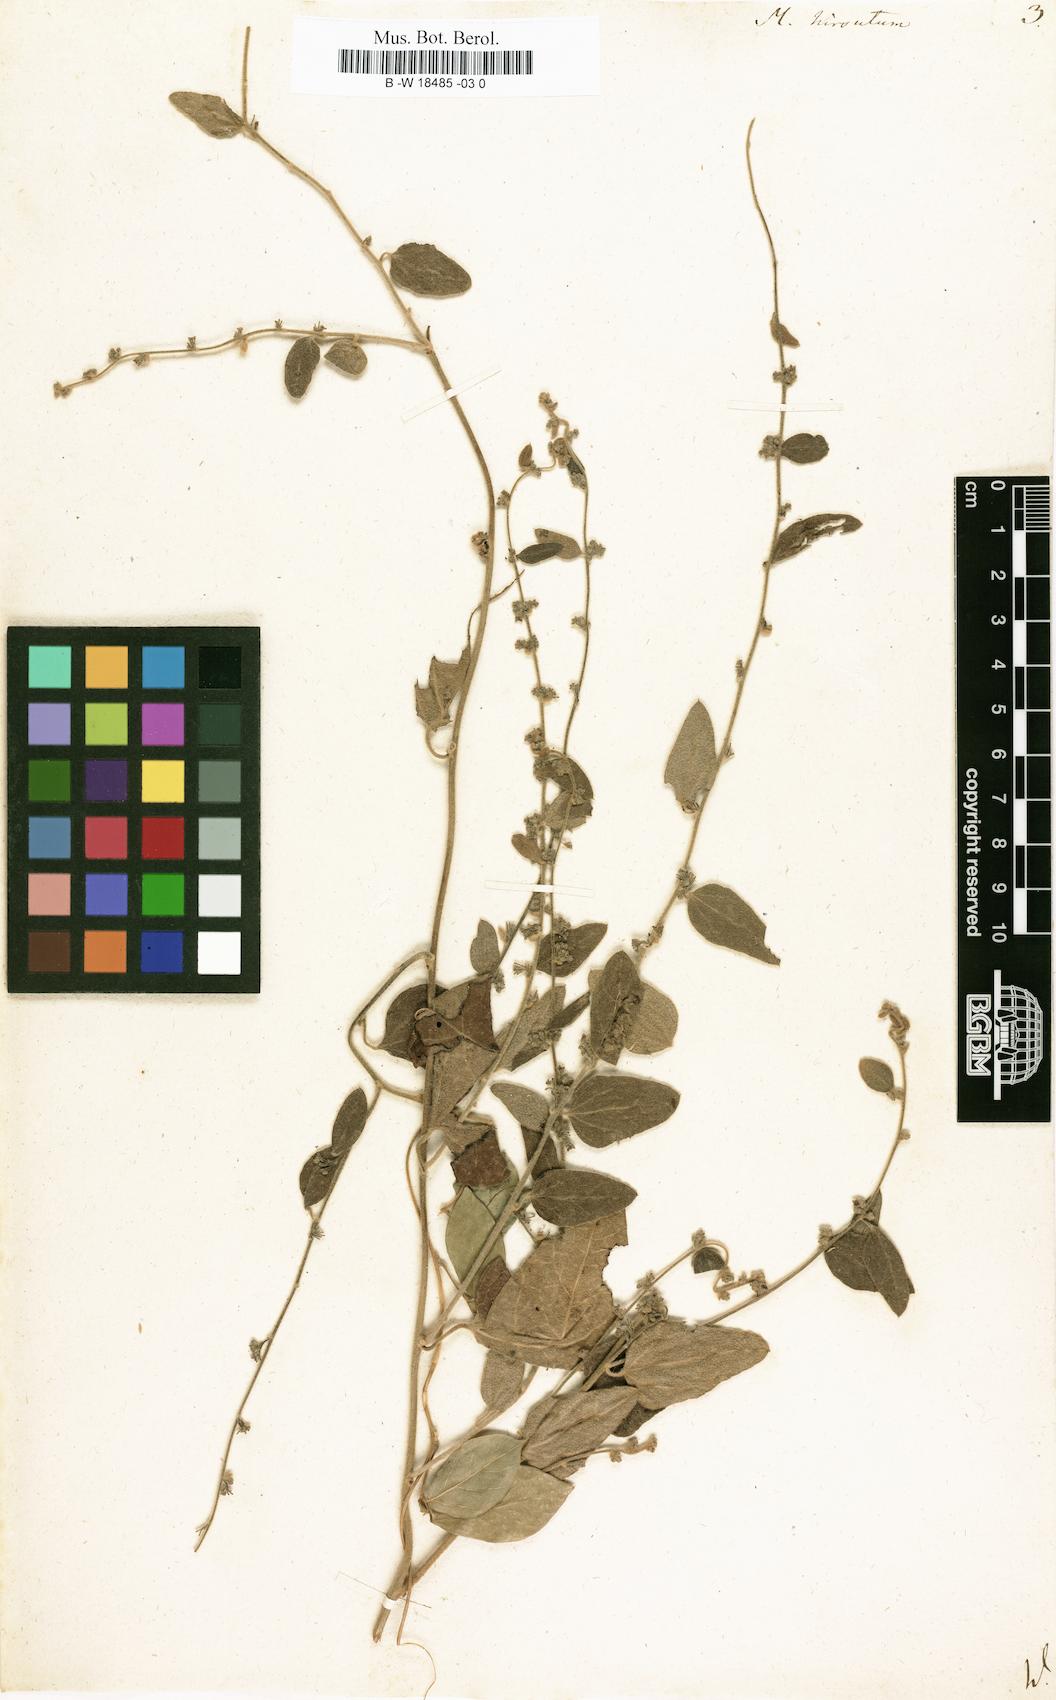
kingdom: Plantae
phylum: Tracheophyta
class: Magnoliopsida
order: Ranunculales
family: Menispermaceae
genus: Cocculus
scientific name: Cocculus hirsutus
